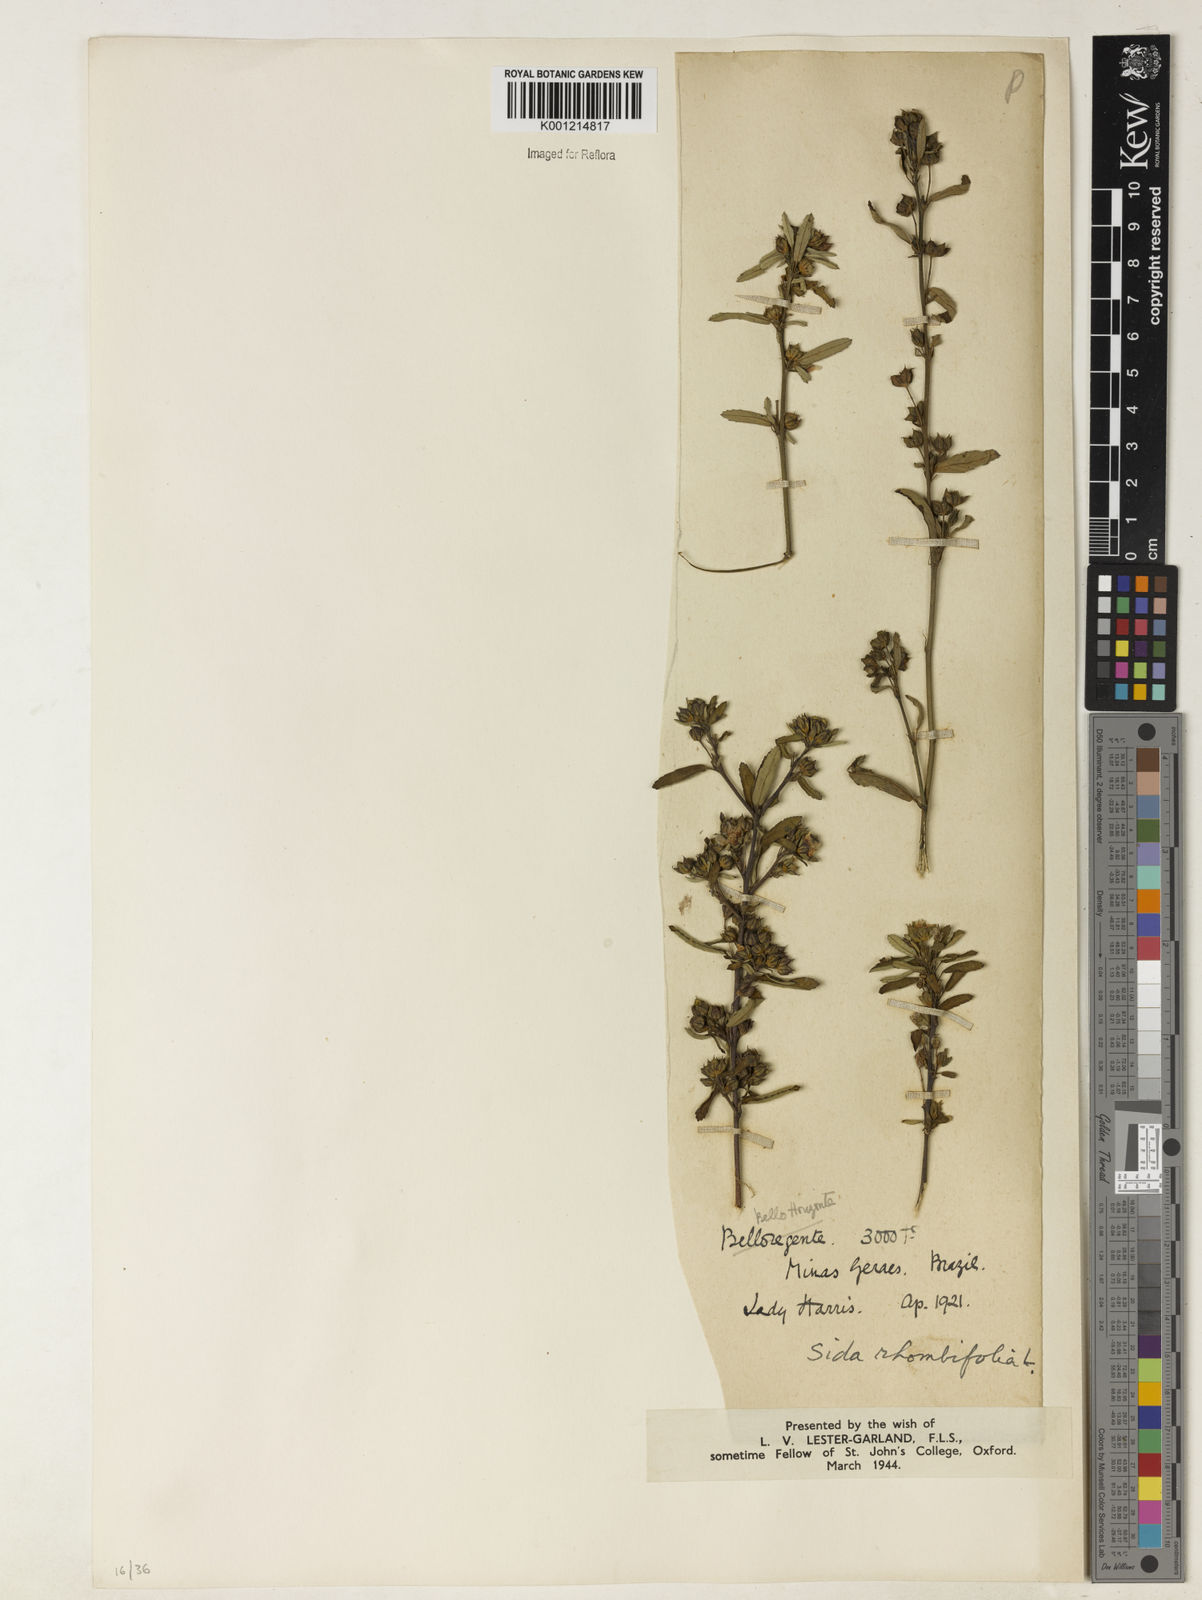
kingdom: Plantae
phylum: Tracheophyta
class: Magnoliopsida
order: Malvales
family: Malvaceae
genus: Sida
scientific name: Sida rhombifolia
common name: Queensland-hemp
